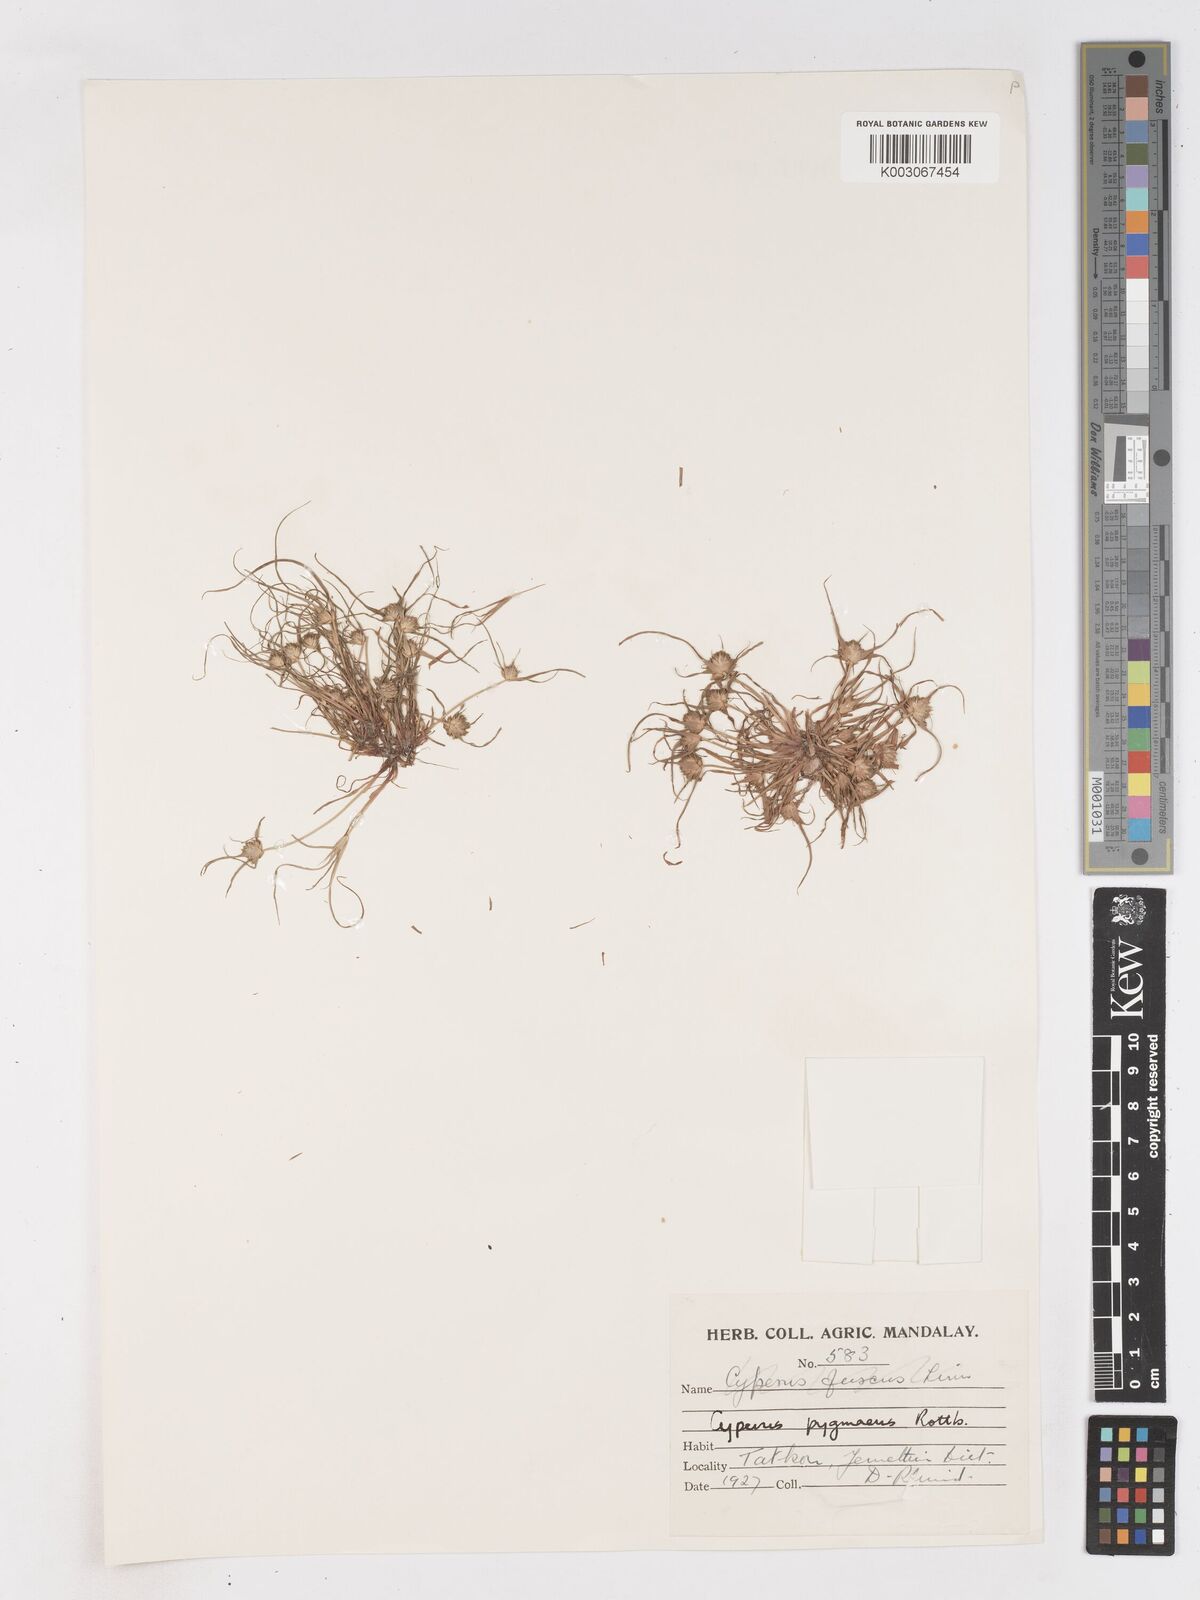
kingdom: Plantae
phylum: Tracheophyta
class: Liliopsida
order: Poales
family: Cyperaceae
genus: Cyperus
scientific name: Cyperus michelianus
